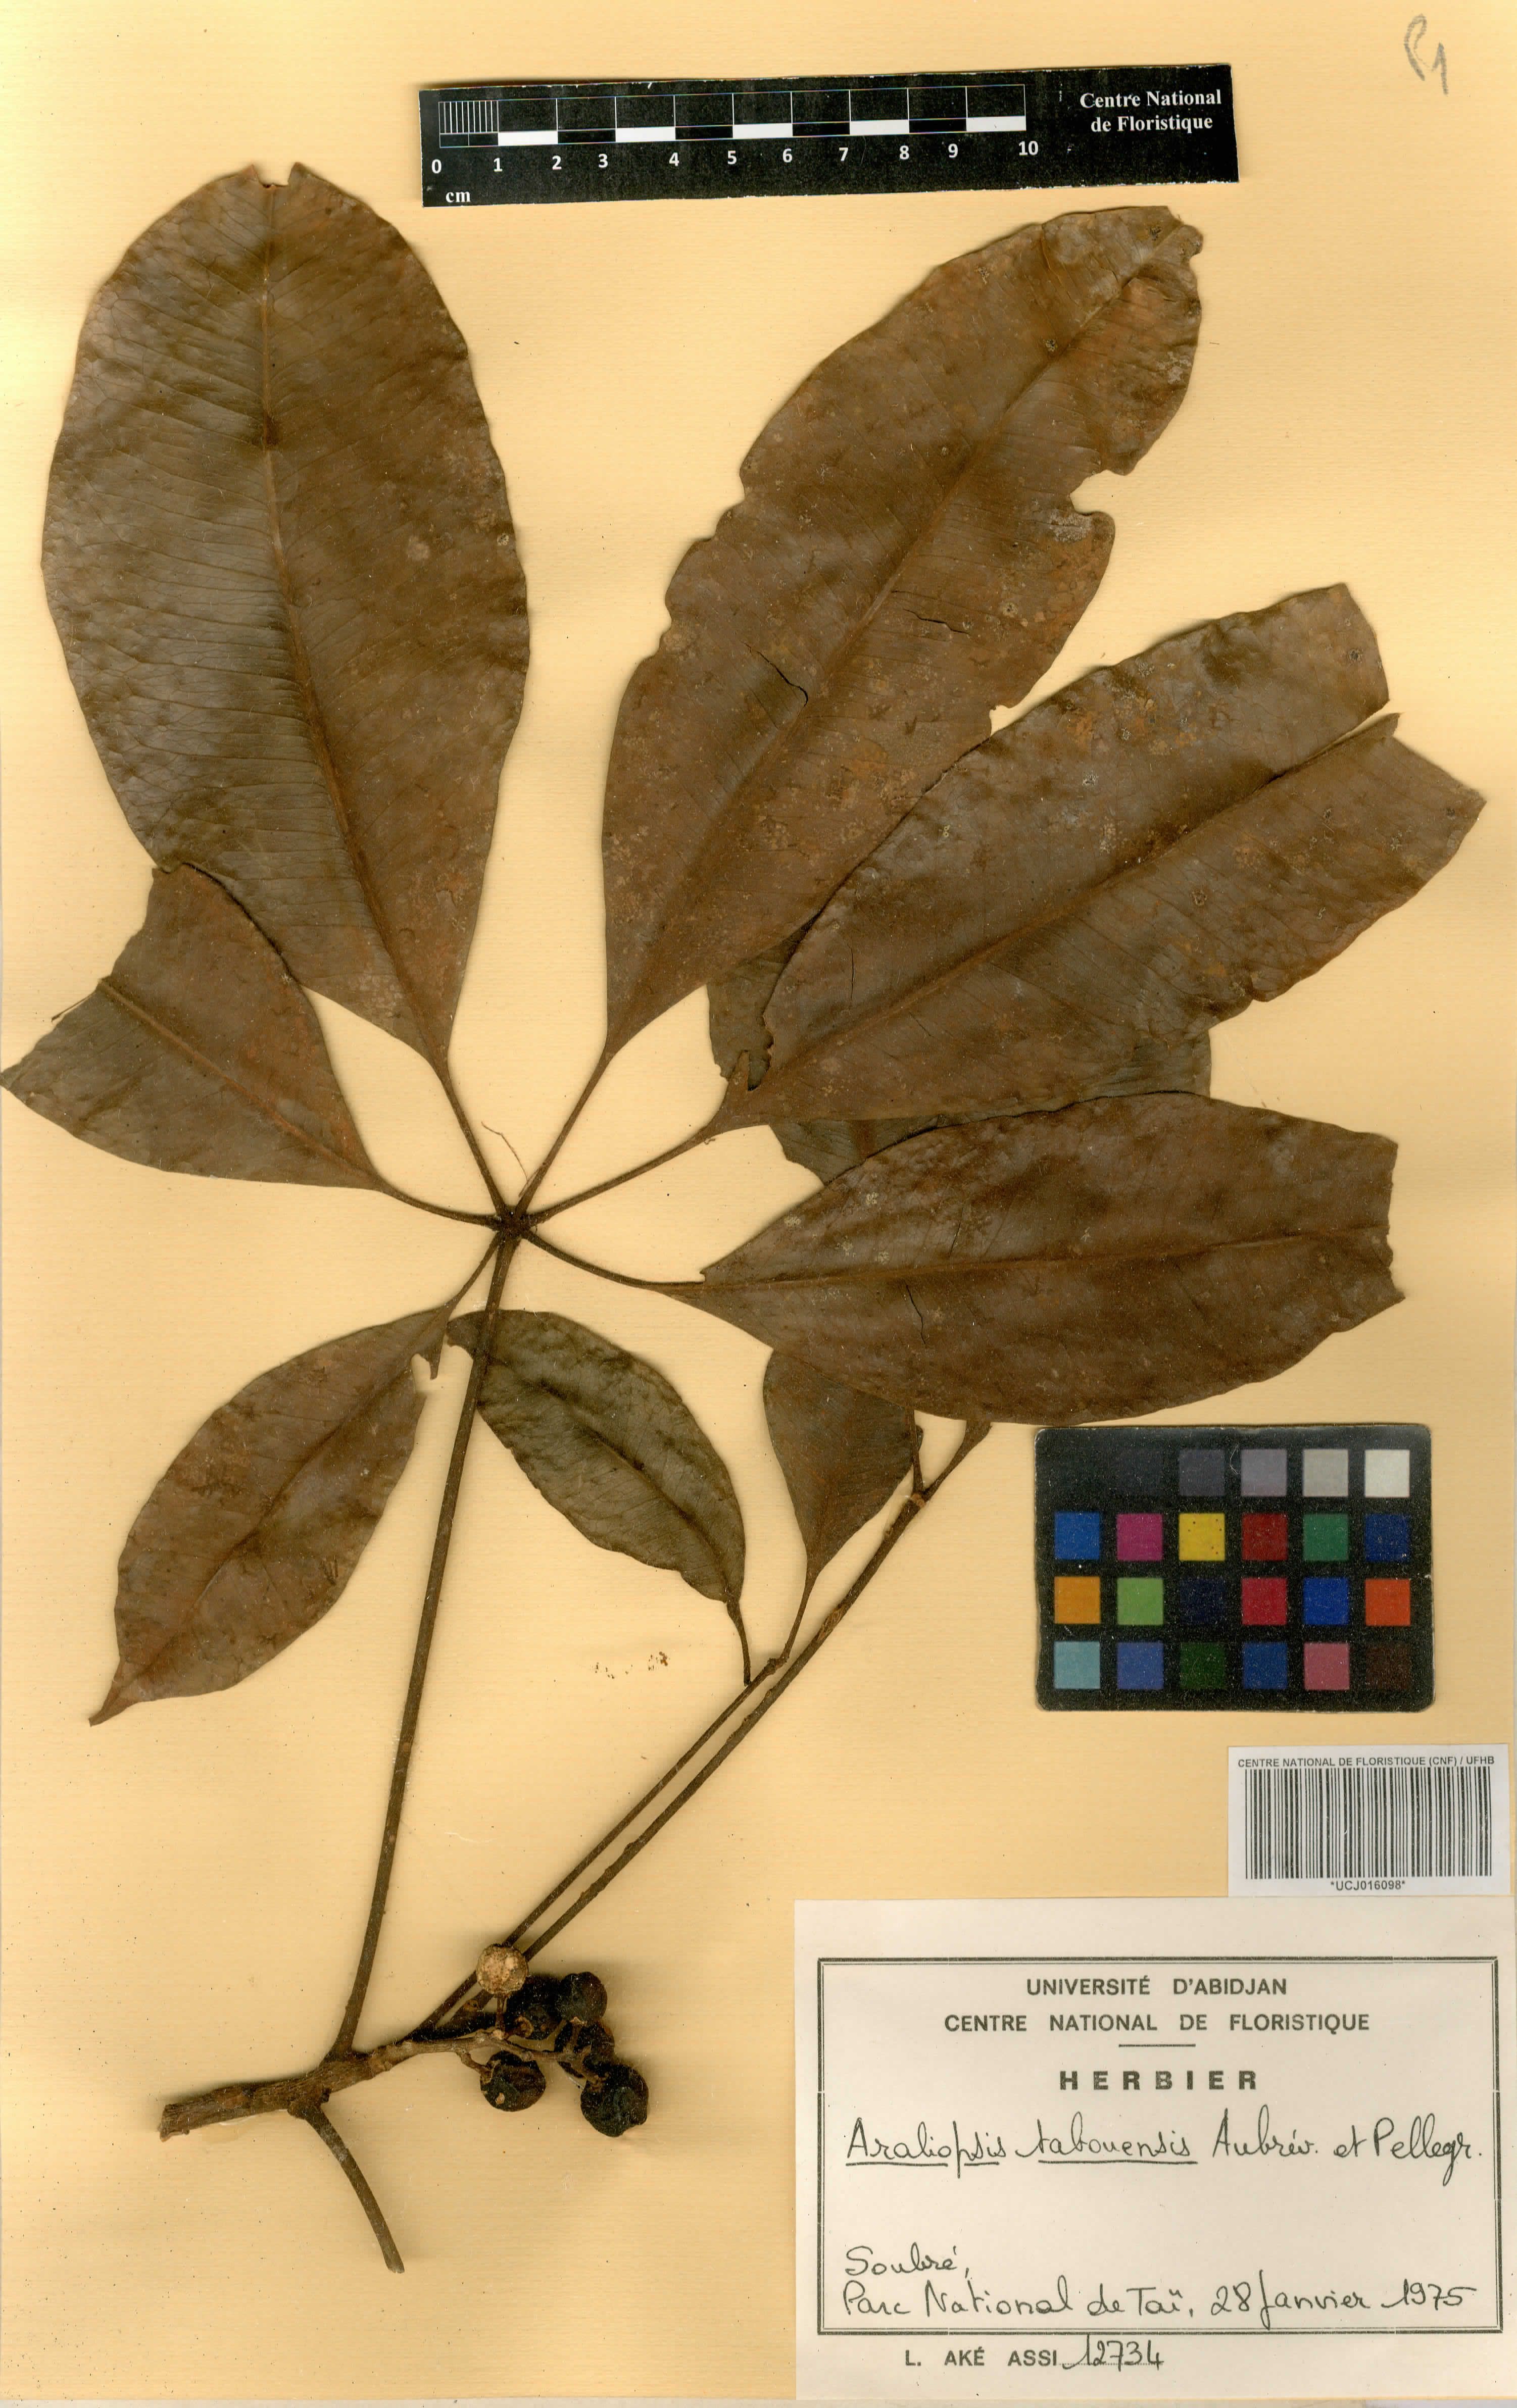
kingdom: Plantae
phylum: Tracheophyta
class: Magnoliopsida
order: Sapindales
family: Rutaceae
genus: Vepris
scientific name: Vepris tabouensis
